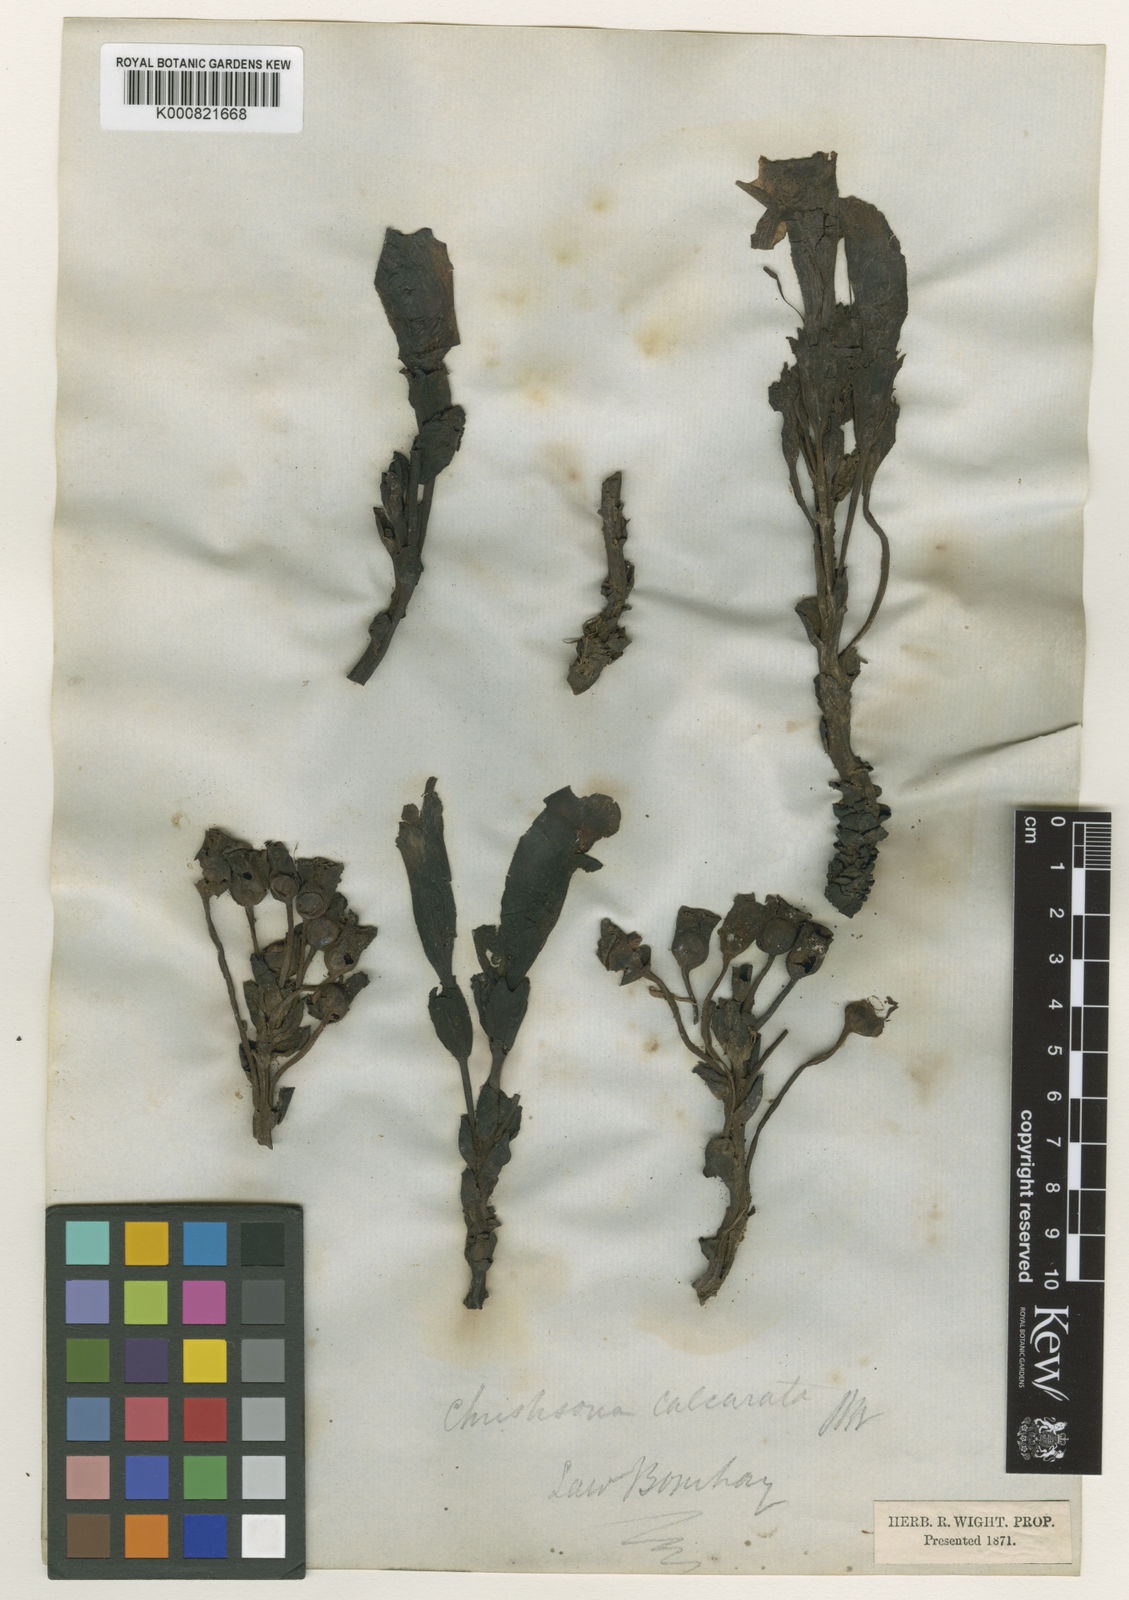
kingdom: Plantae
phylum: Tracheophyta
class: Magnoliopsida
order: Lamiales
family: Orobanchaceae
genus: Christisonia
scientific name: Christisonia calcarata
